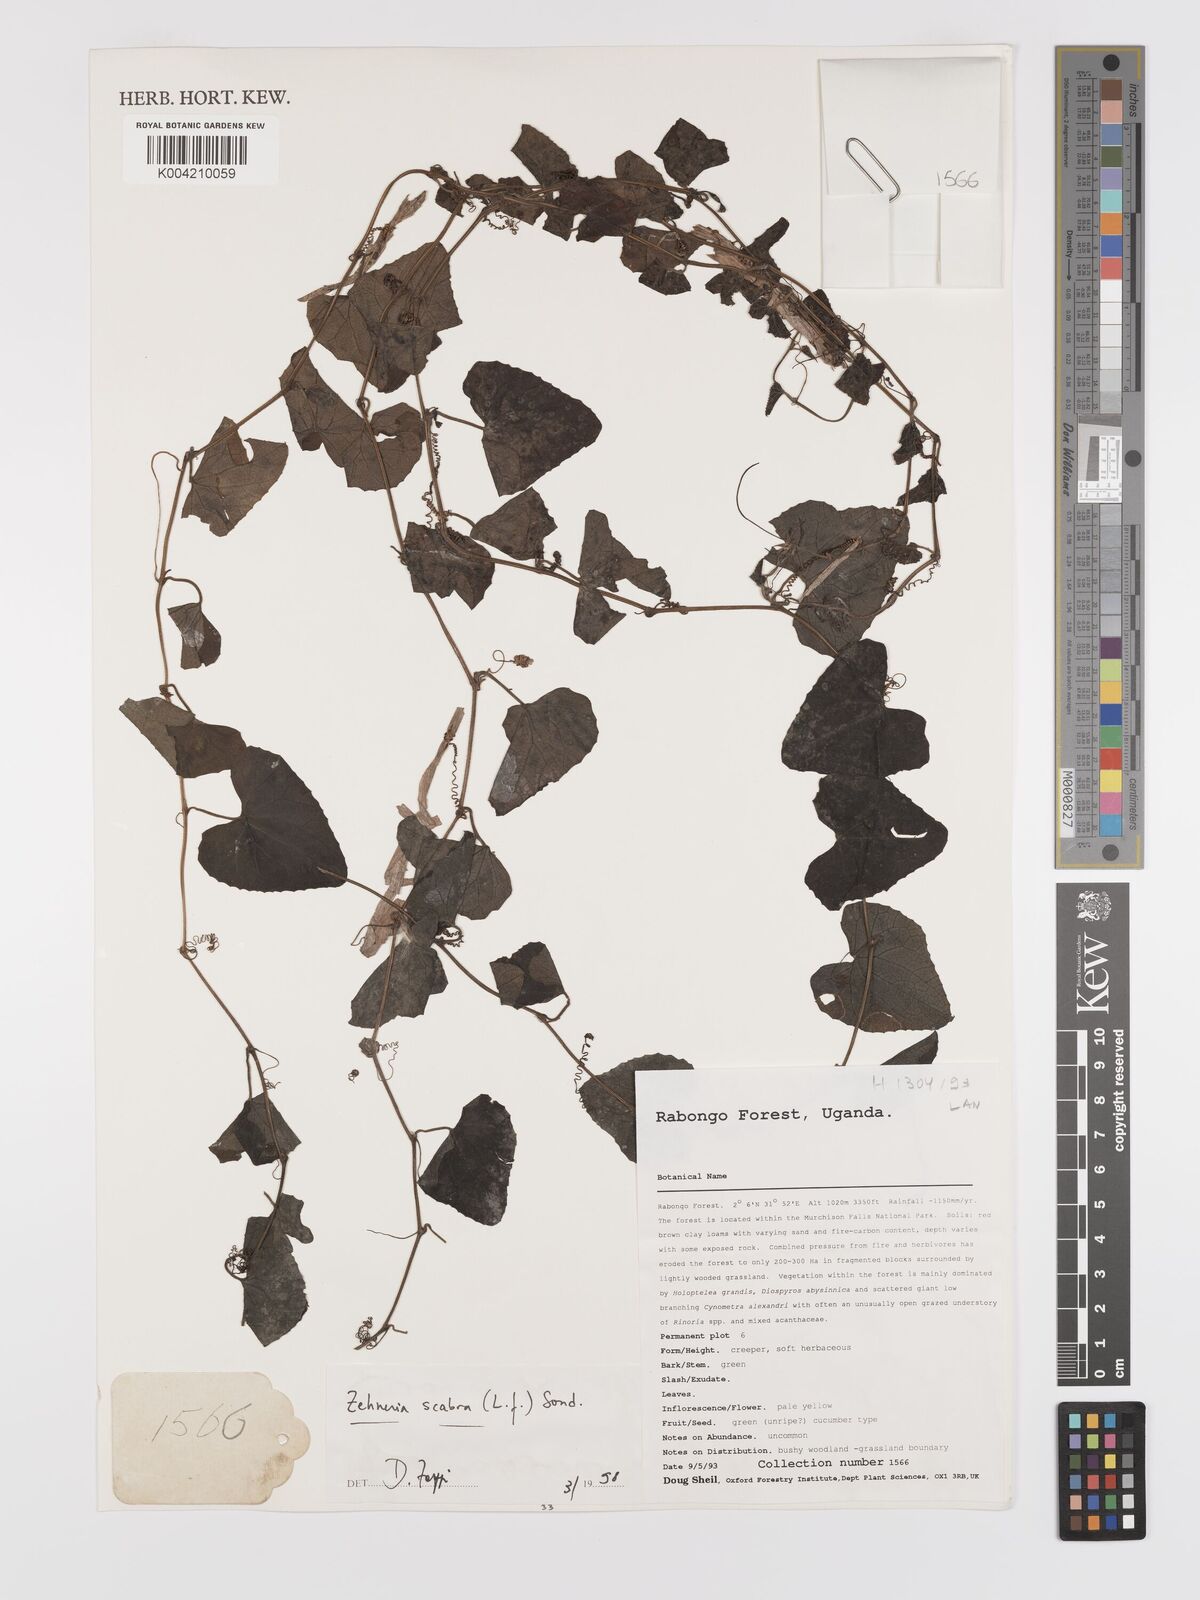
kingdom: Plantae
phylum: Tracheophyta
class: Magnoliopsida
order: Cucurbitales
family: Cucurbitaceae
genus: Zehneria
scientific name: Zehneria scabra
